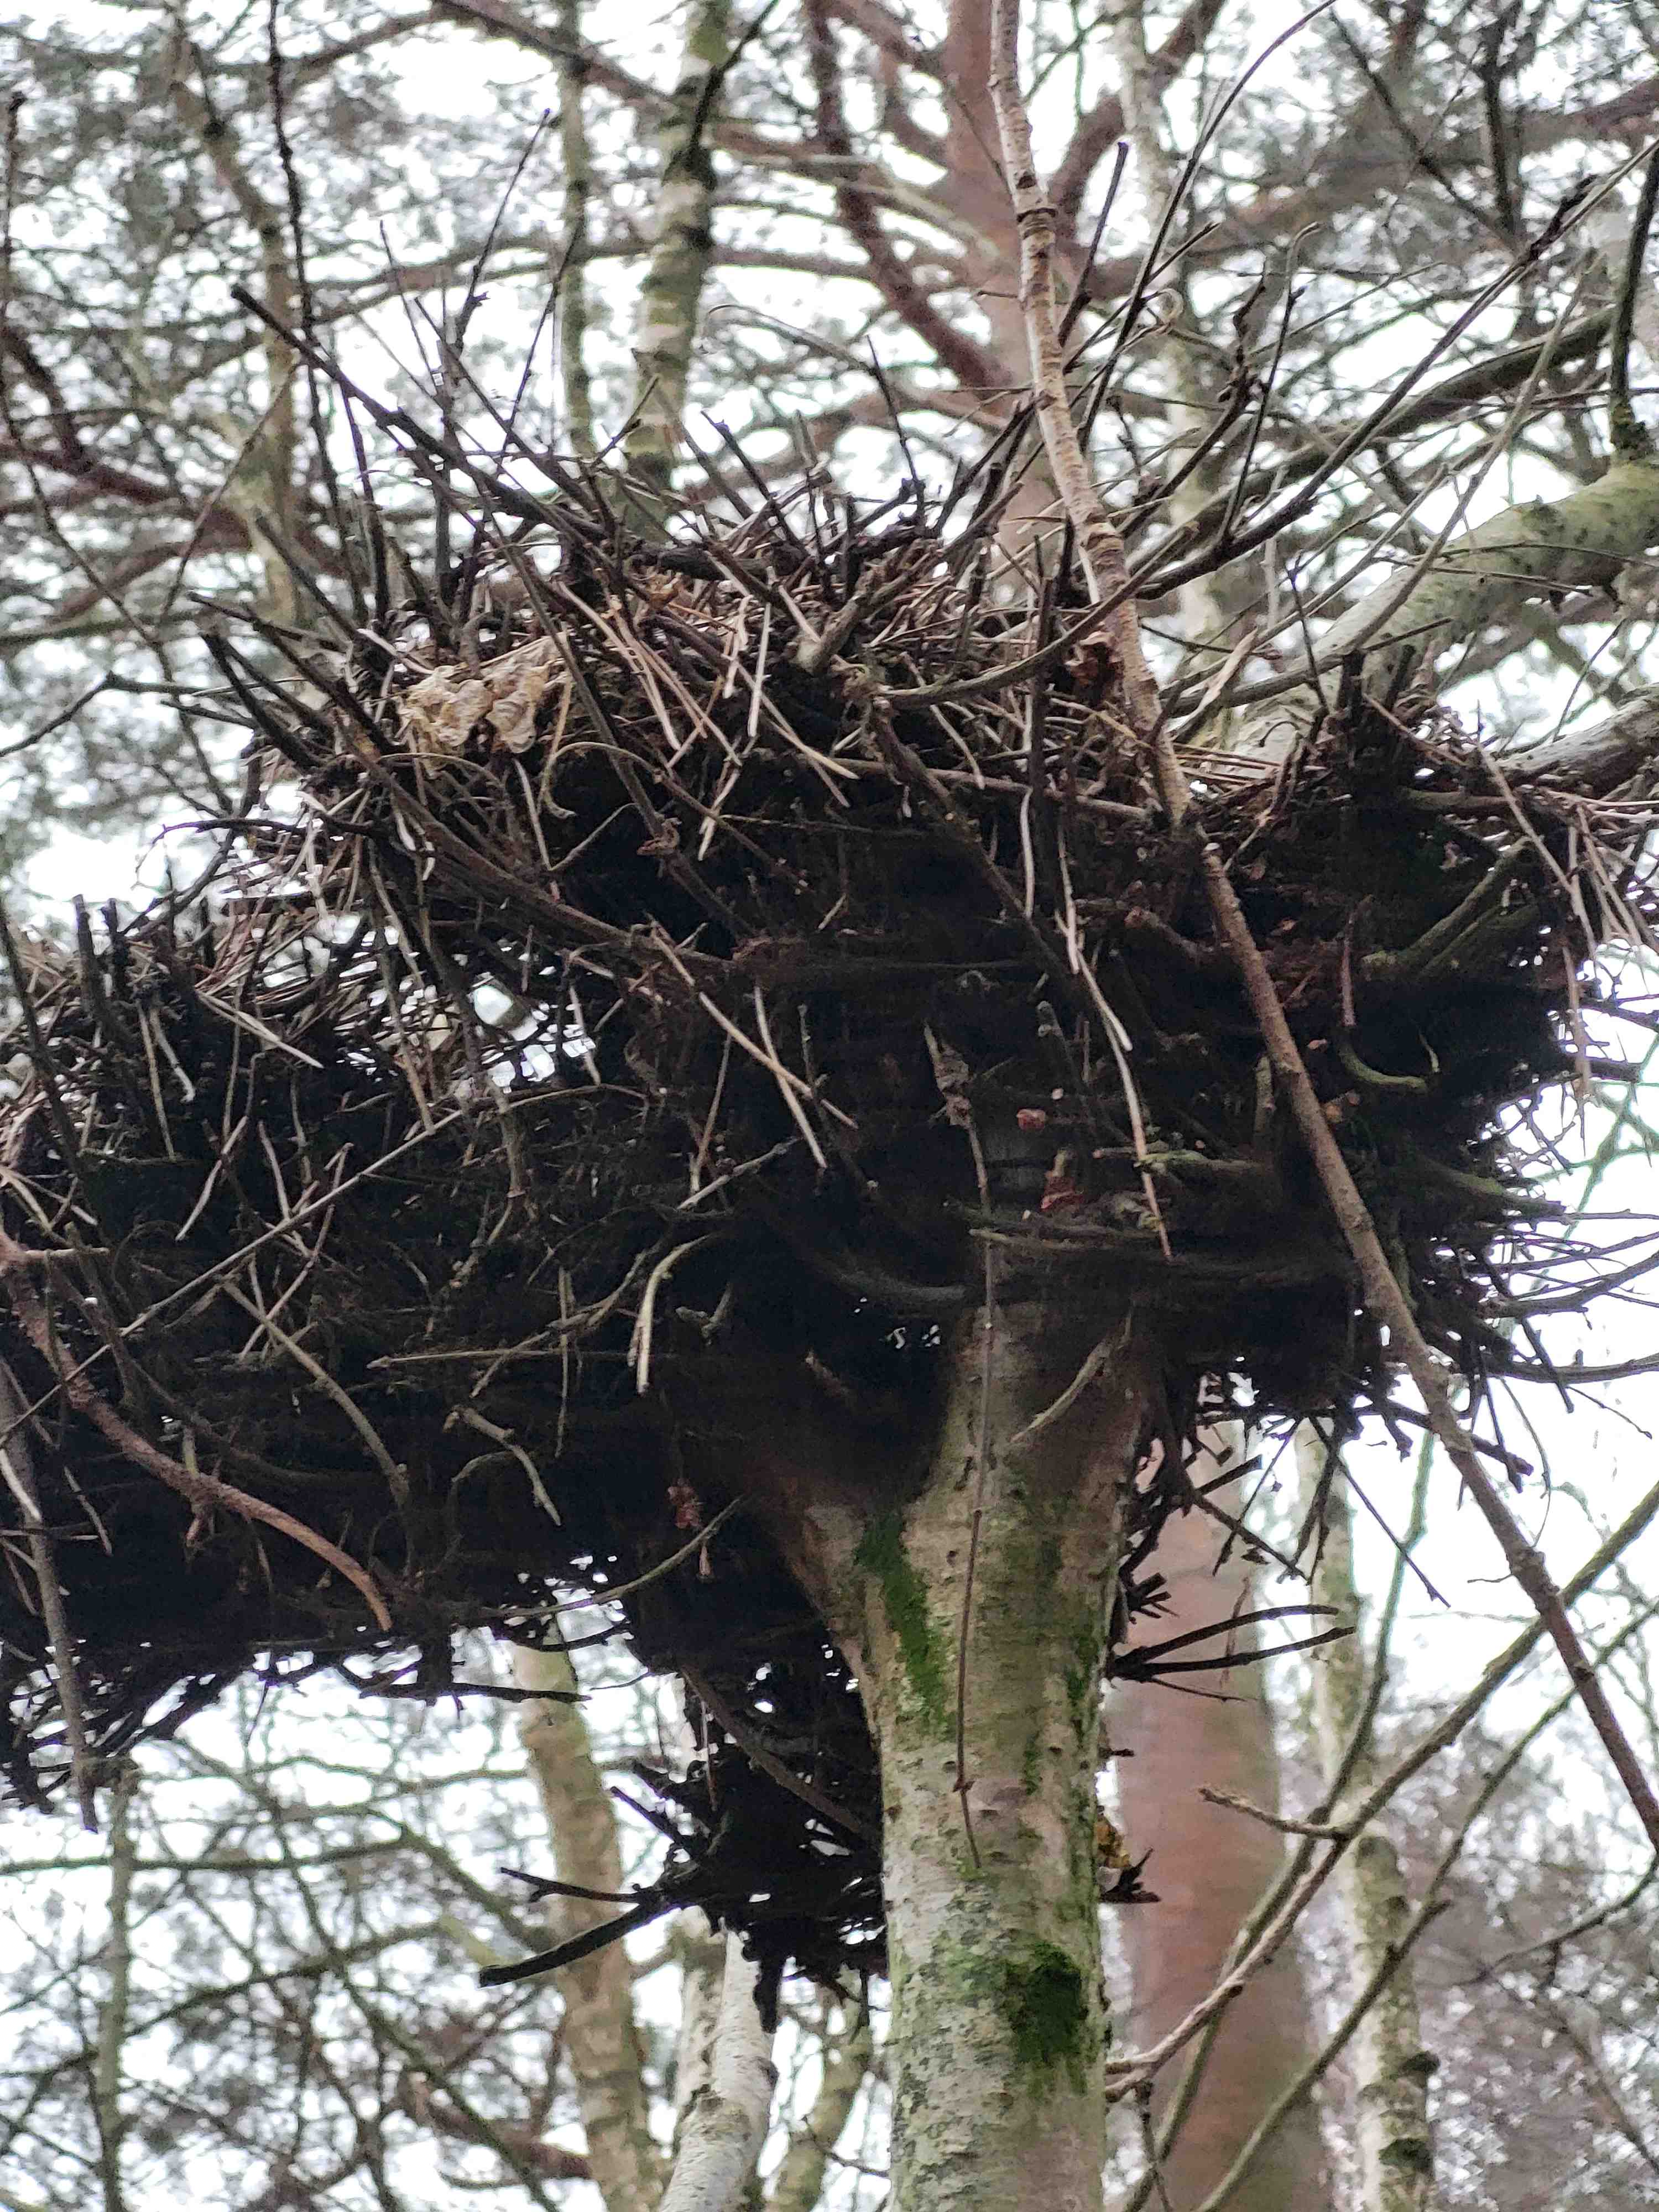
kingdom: Fungi
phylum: Ascomycota
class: Taphrinomycetes
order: Taphrinales
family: Taphrinaceae
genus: Taphrina
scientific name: Taphrina betulina
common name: hekse-sækdug
